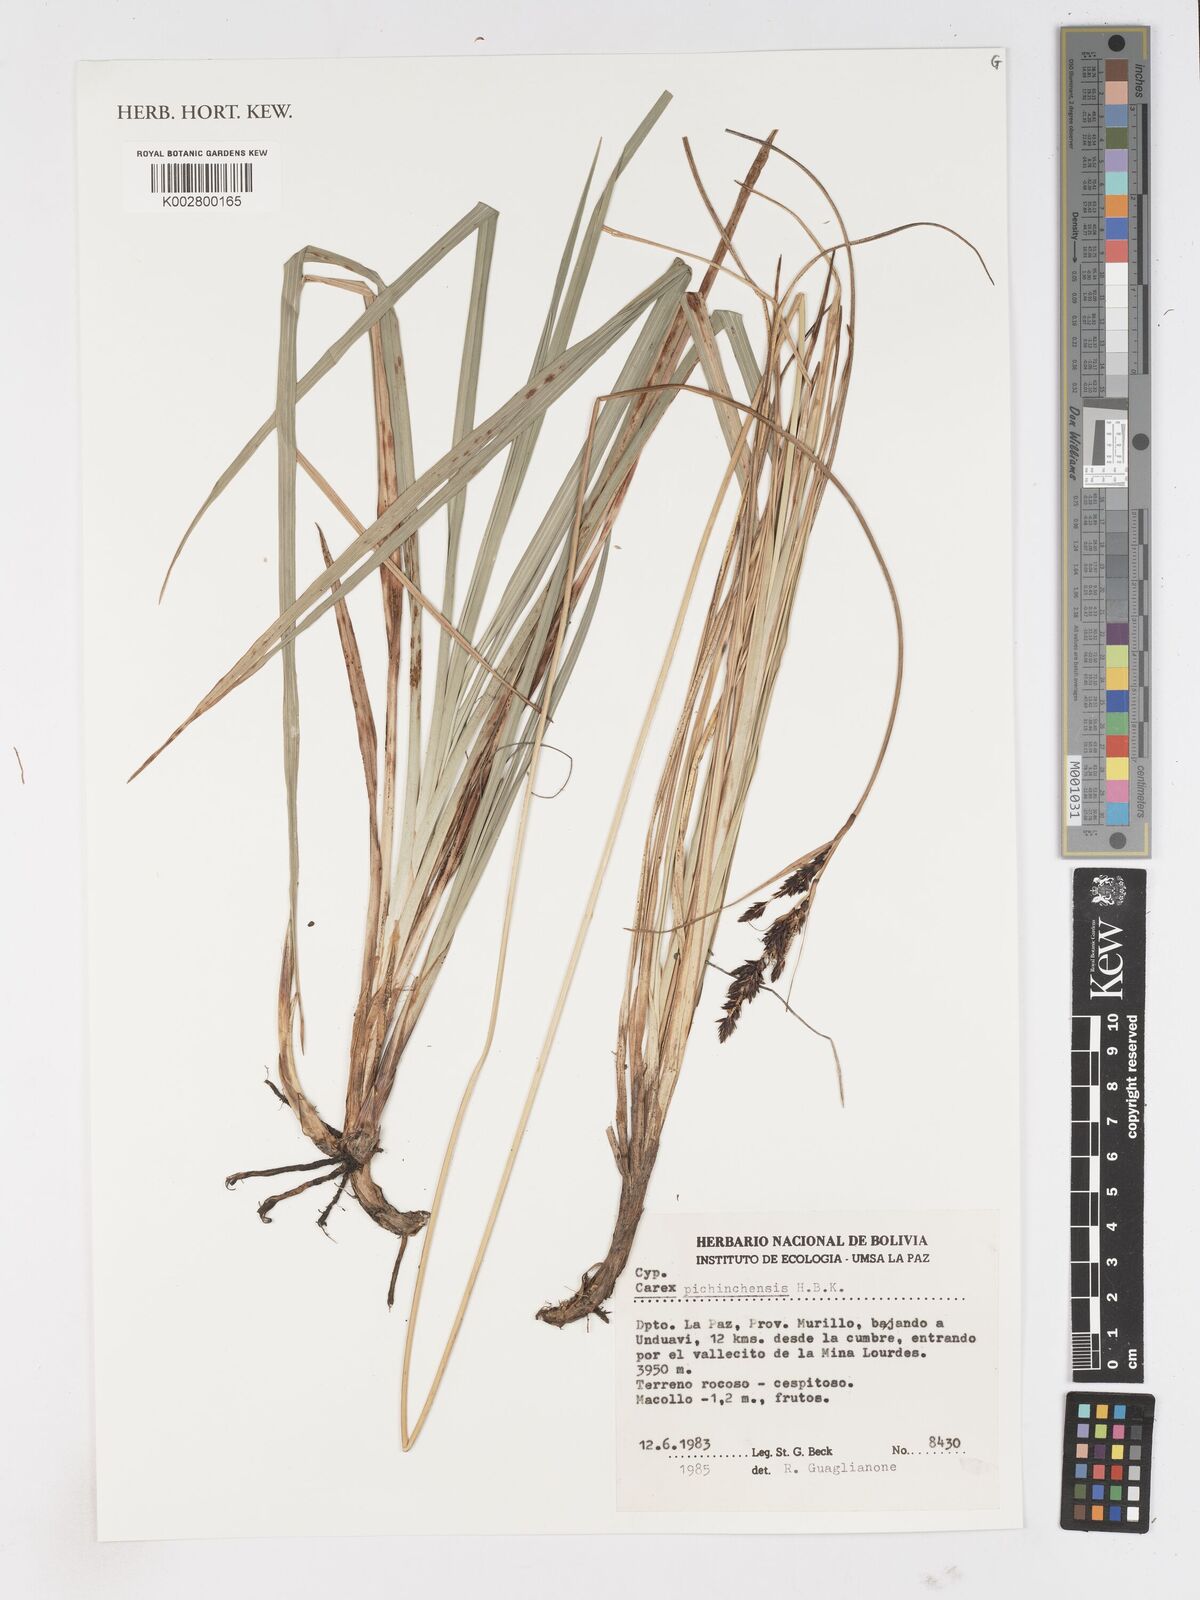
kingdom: Plantae
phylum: Tracheophyta
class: Liliopsida
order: Poales
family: Cyperaceae
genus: Carex
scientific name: Carex pichinchensis
